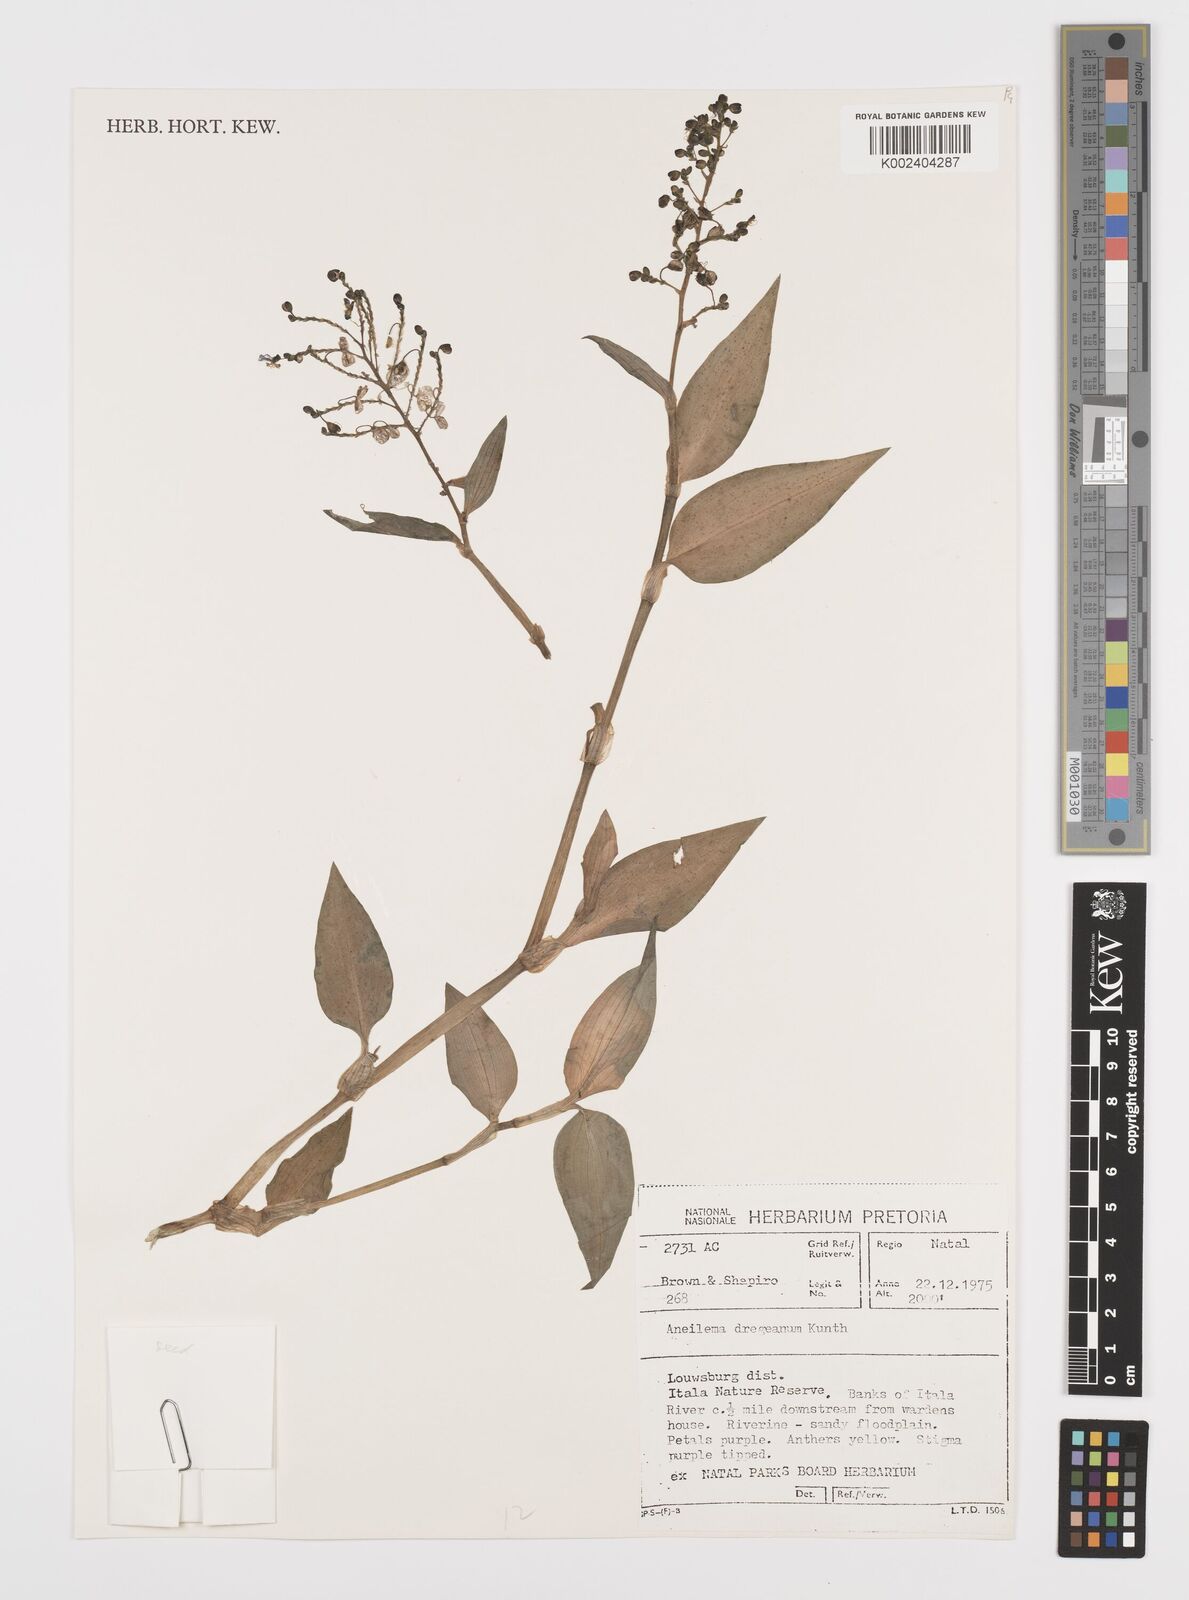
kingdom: Plantae
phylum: Tracheophyta
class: Liliopsida
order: Commelinales
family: Commelinaceae
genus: Aneilema
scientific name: Aneilema dregeanum
